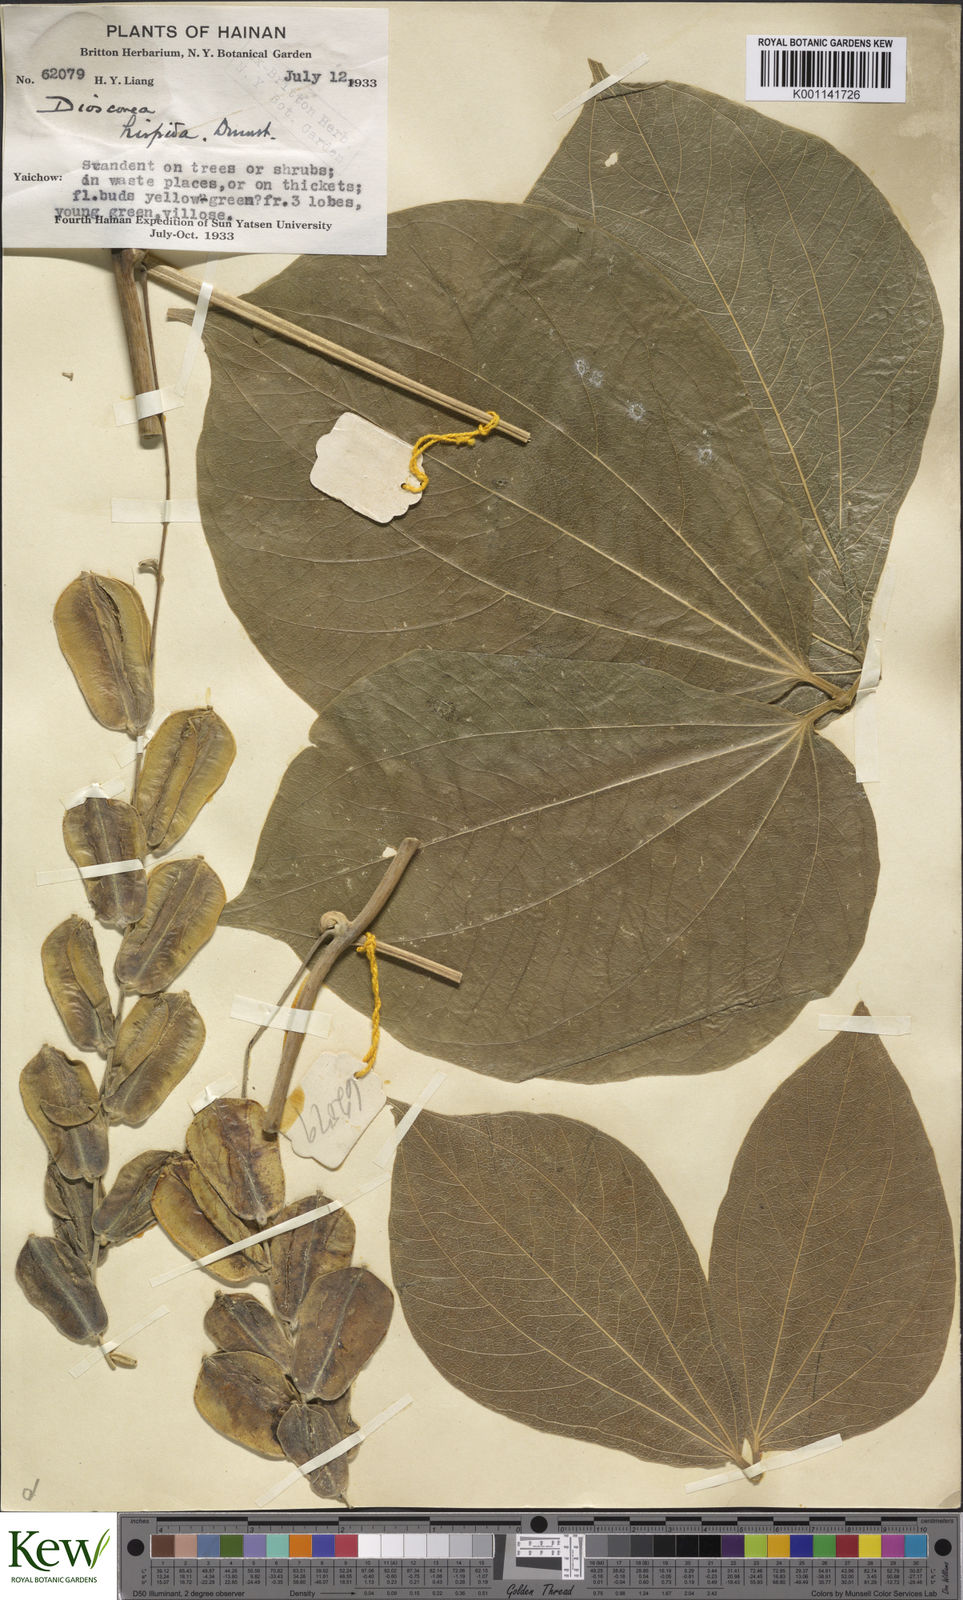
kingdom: Plantae
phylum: Tracheophyta
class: Liliopsida
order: Dioscoreales
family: Dioscoreaceae
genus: Dioscorea
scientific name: Dioscorea hispida
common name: Asiatic bitter yam
